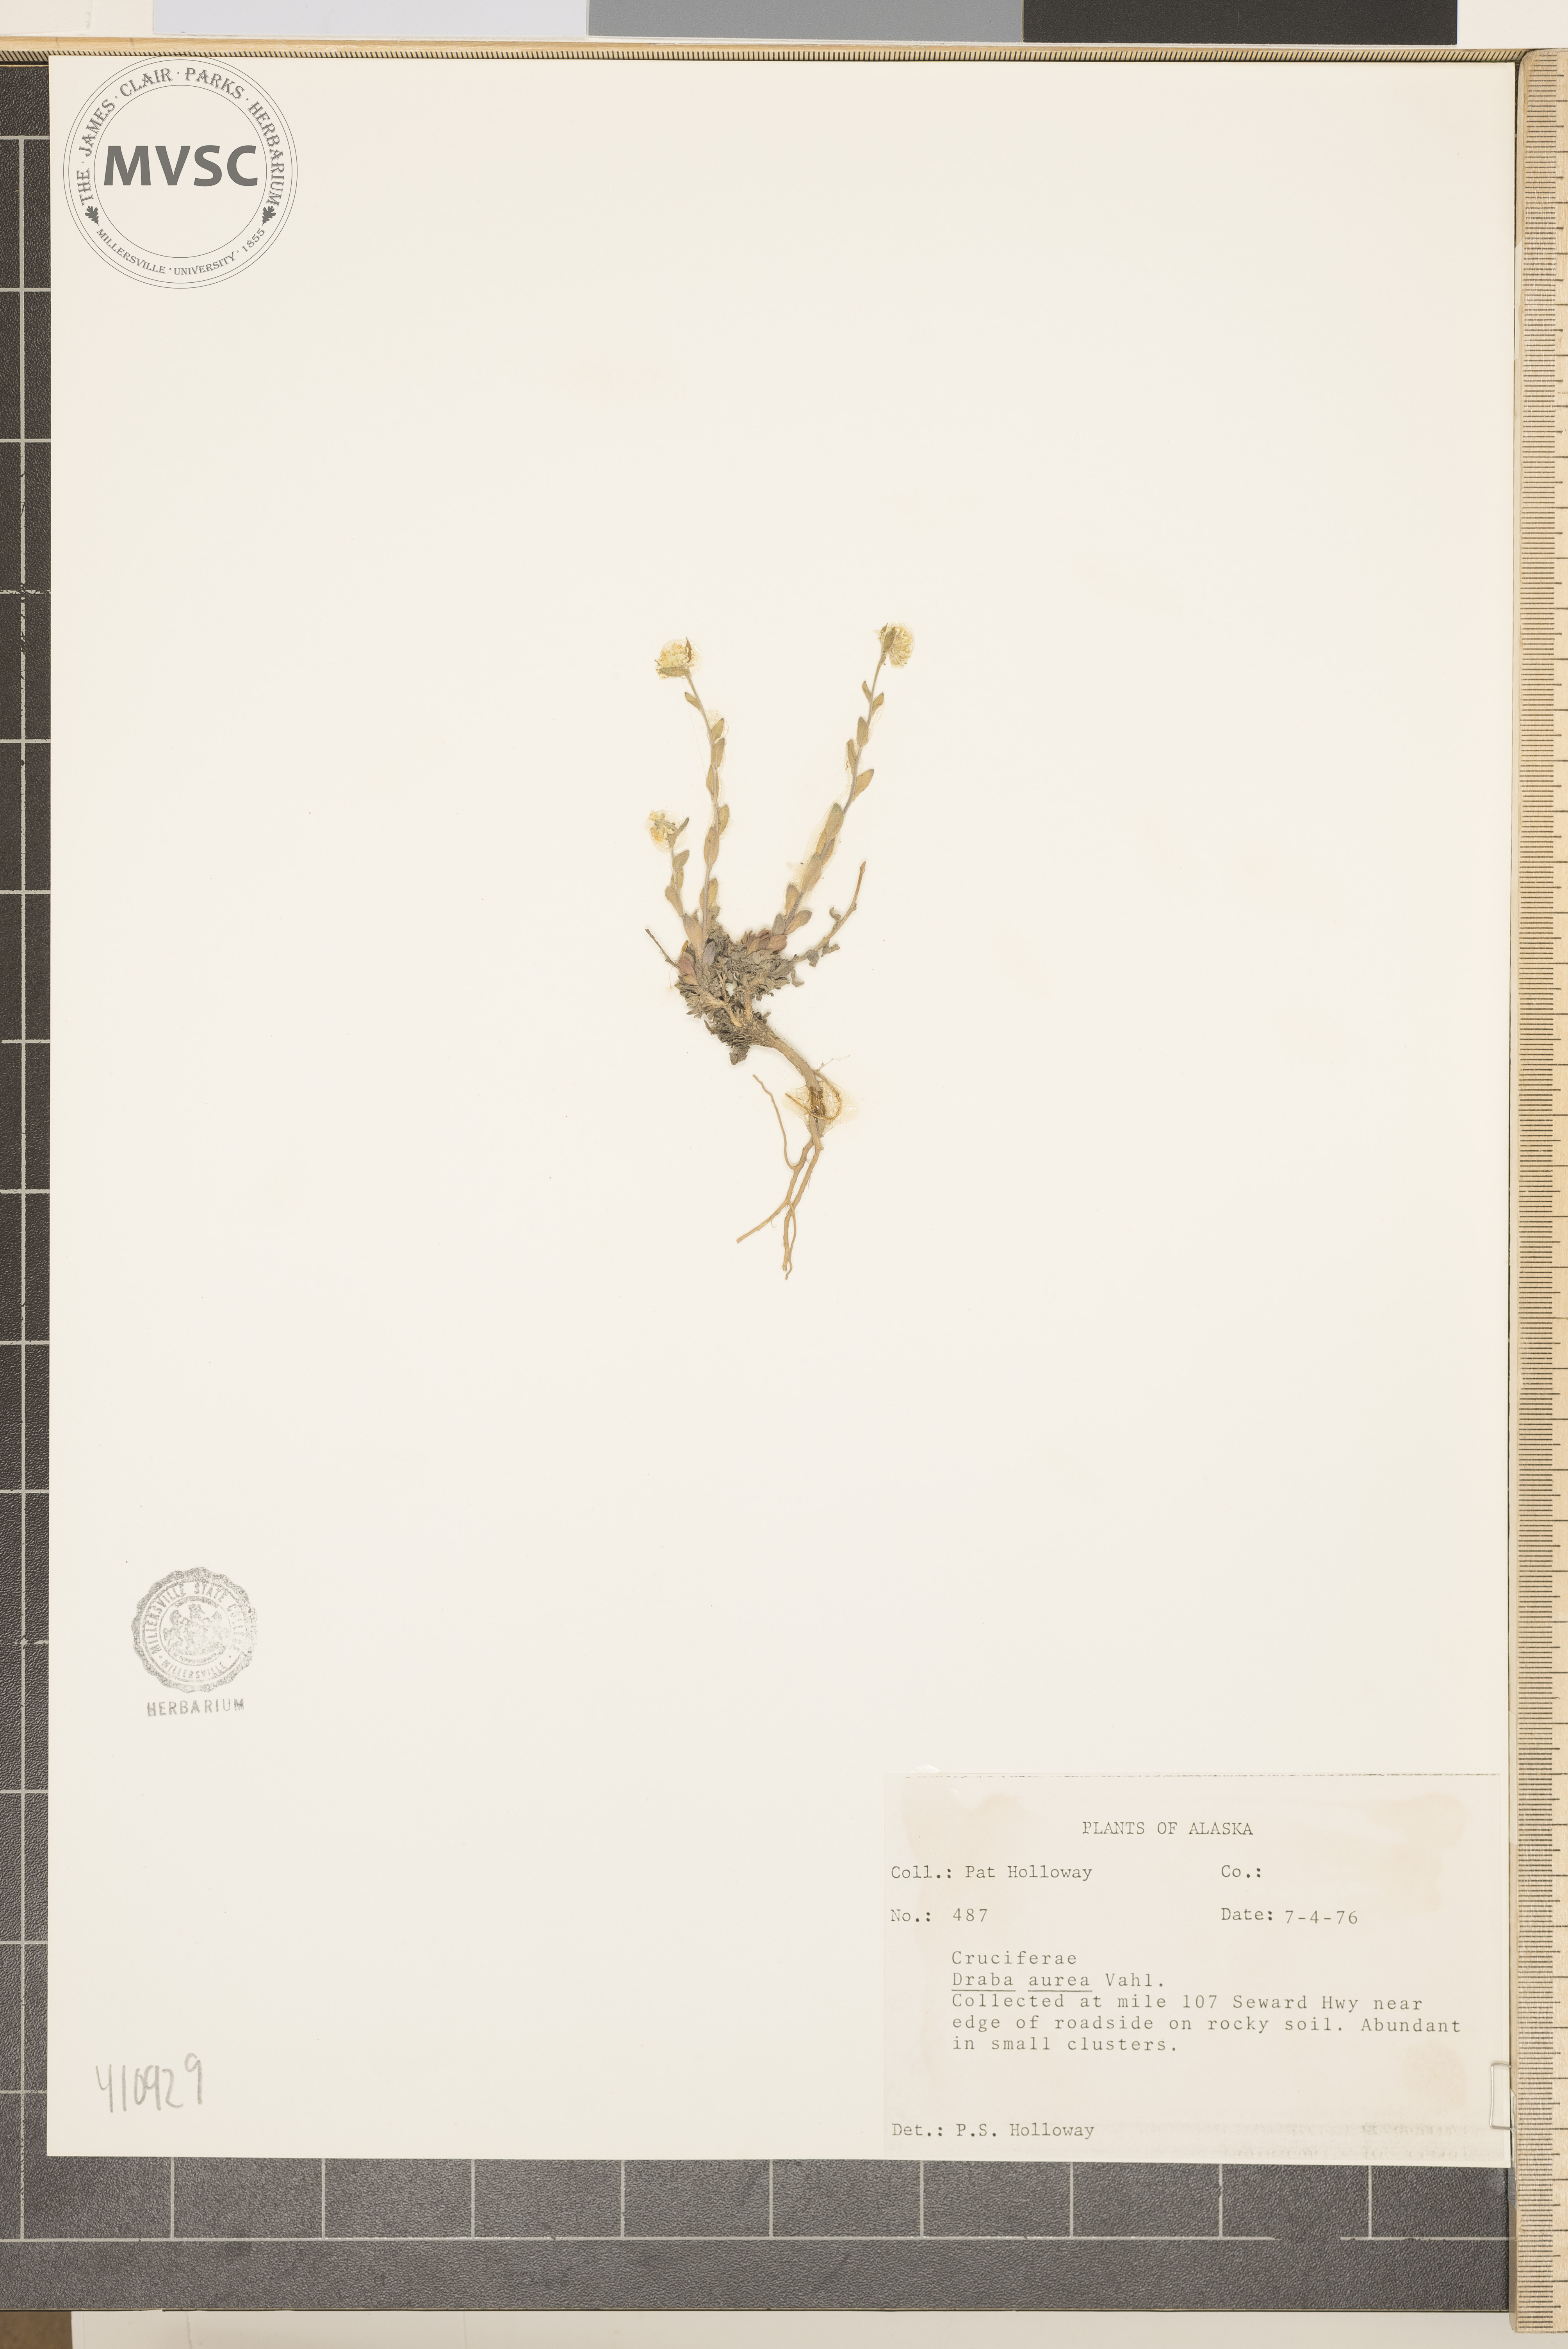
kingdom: Plantae
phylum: Tracheophyta
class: Magnoliopsida
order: Brassicales
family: Brassicaceae
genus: Draba
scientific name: Draba aurea
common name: Golden draba
